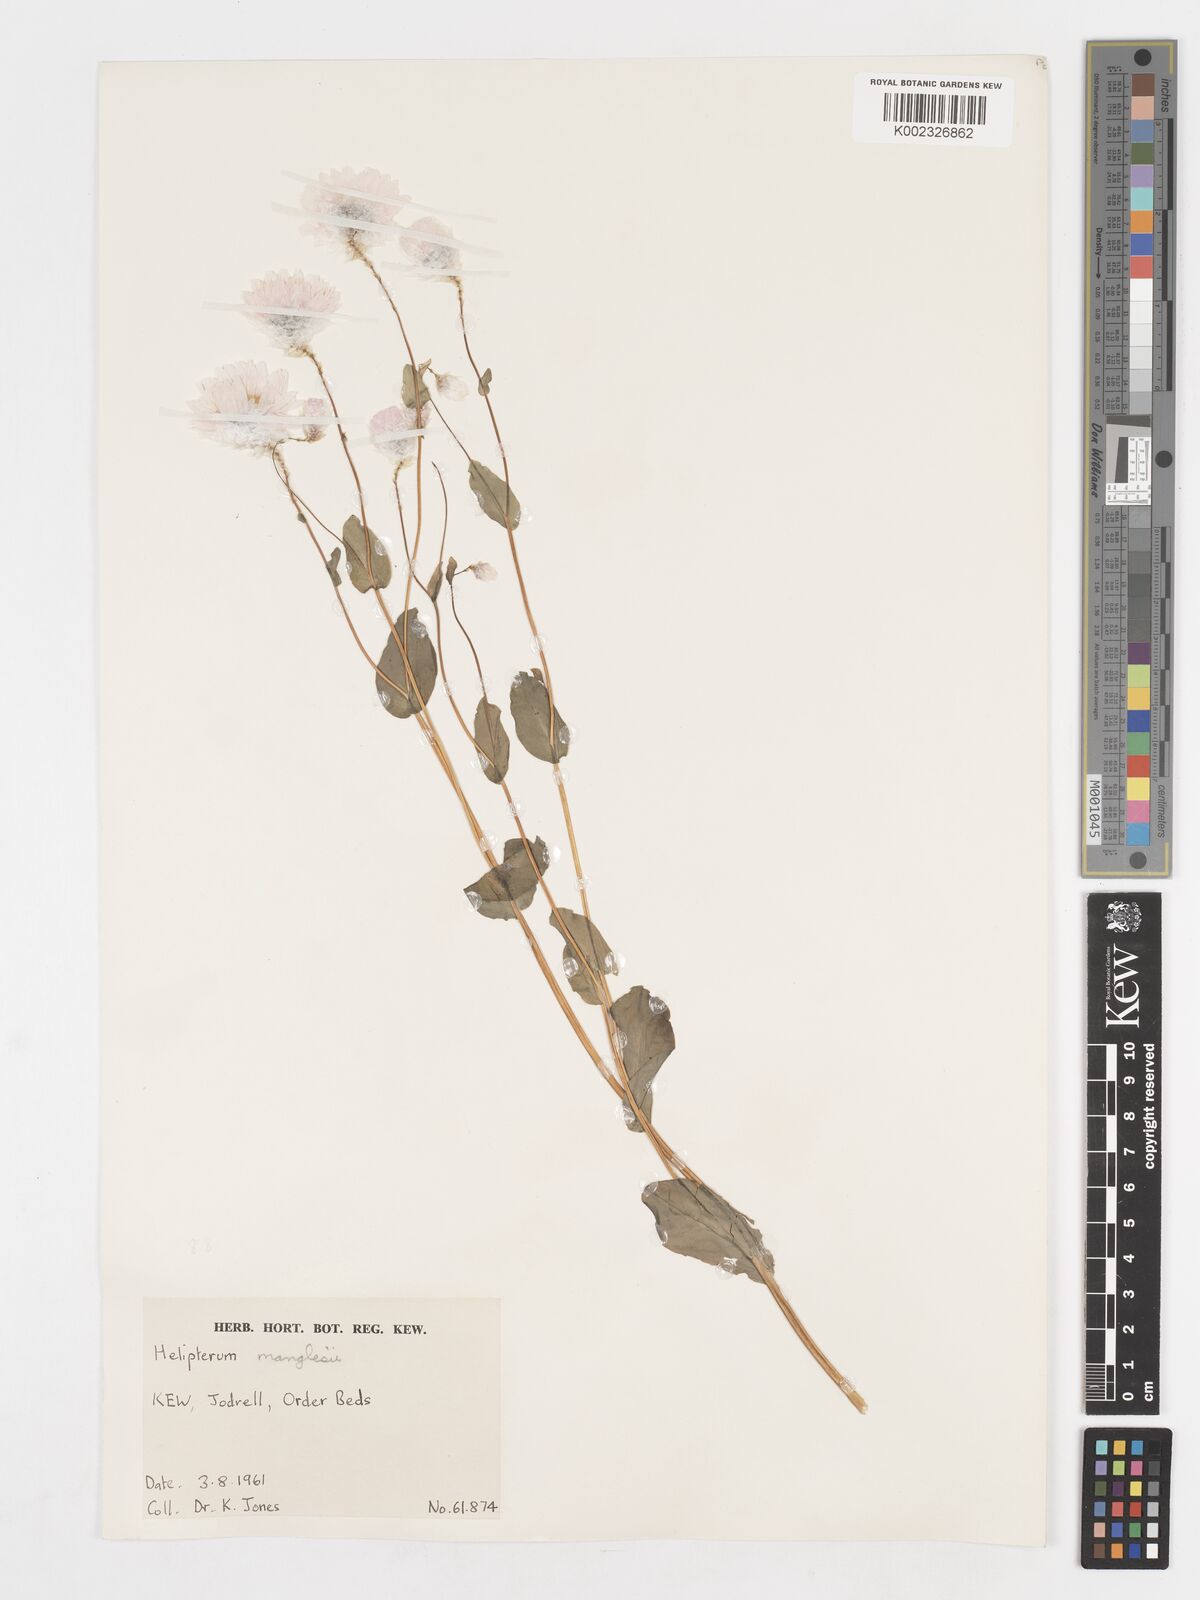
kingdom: Plantae
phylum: Tracheophyta
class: Magnoliopsida
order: Asterales
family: Asteraceae
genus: Syncarpha
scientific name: Syncarpha
